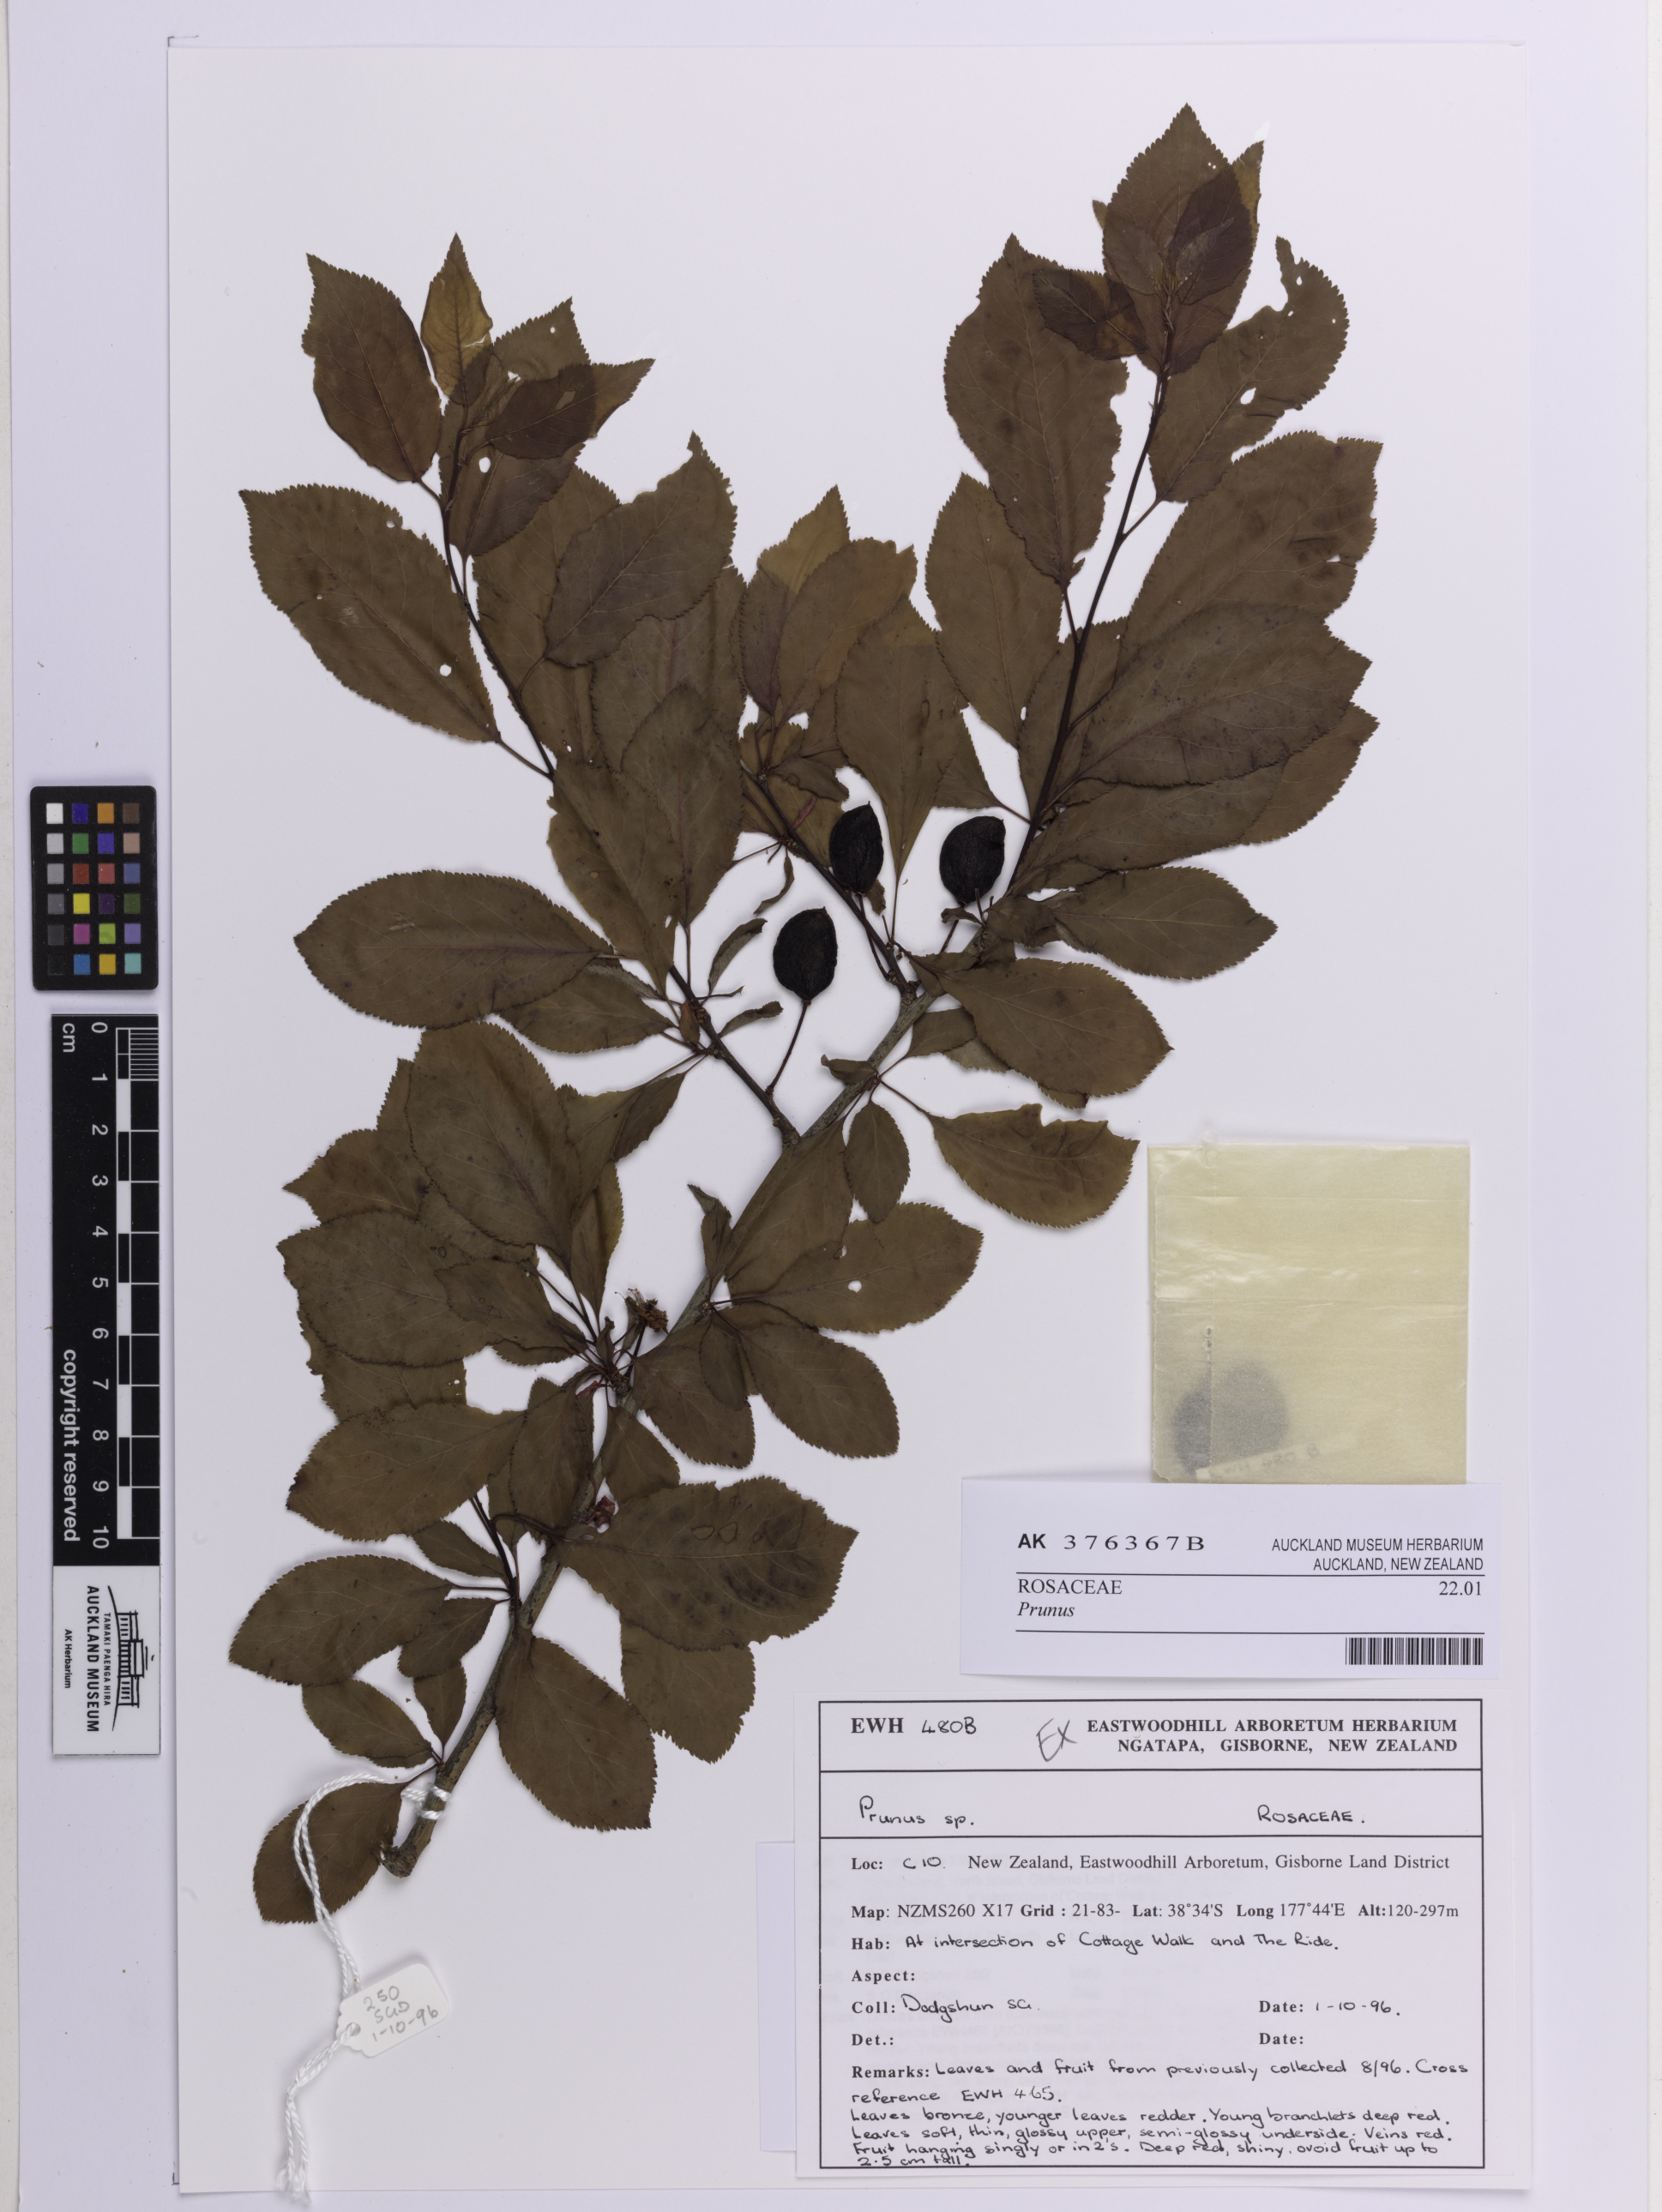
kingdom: Plantae
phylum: Tracheophyta
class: Magnoliopsida
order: Rosales
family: Rosaceae
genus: Prunus
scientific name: Prunus
